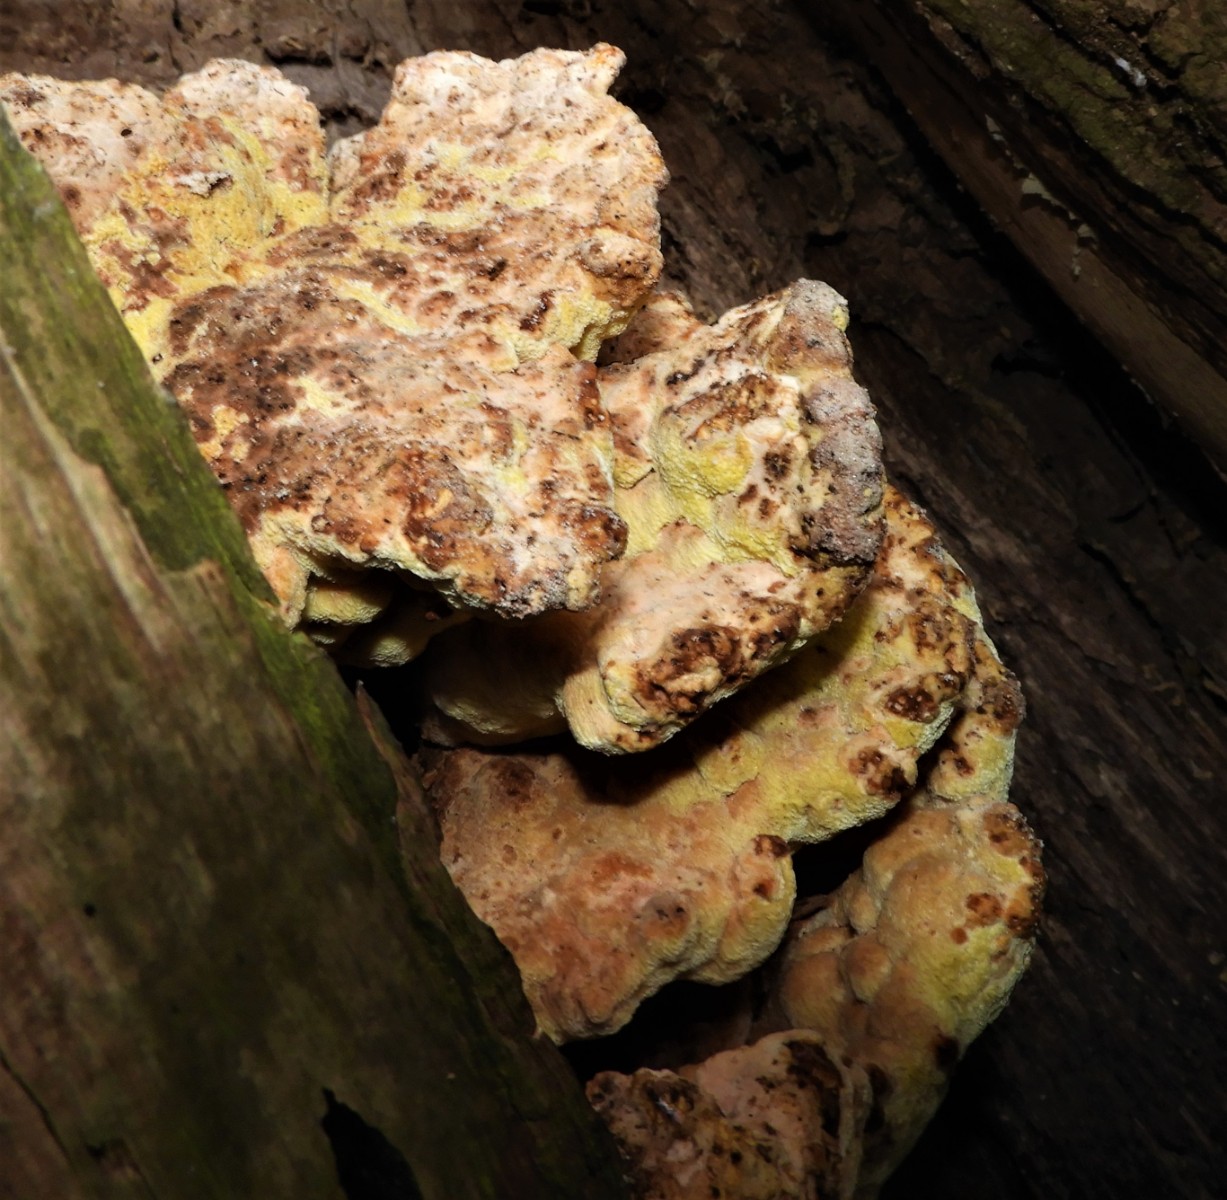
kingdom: Fungi
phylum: Basidiomycota
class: Agaricomycetes
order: Polyporales
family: Laetiporaceae
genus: Laetiporus
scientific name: Laetiporus sulphureus
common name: svovlporesvamp
